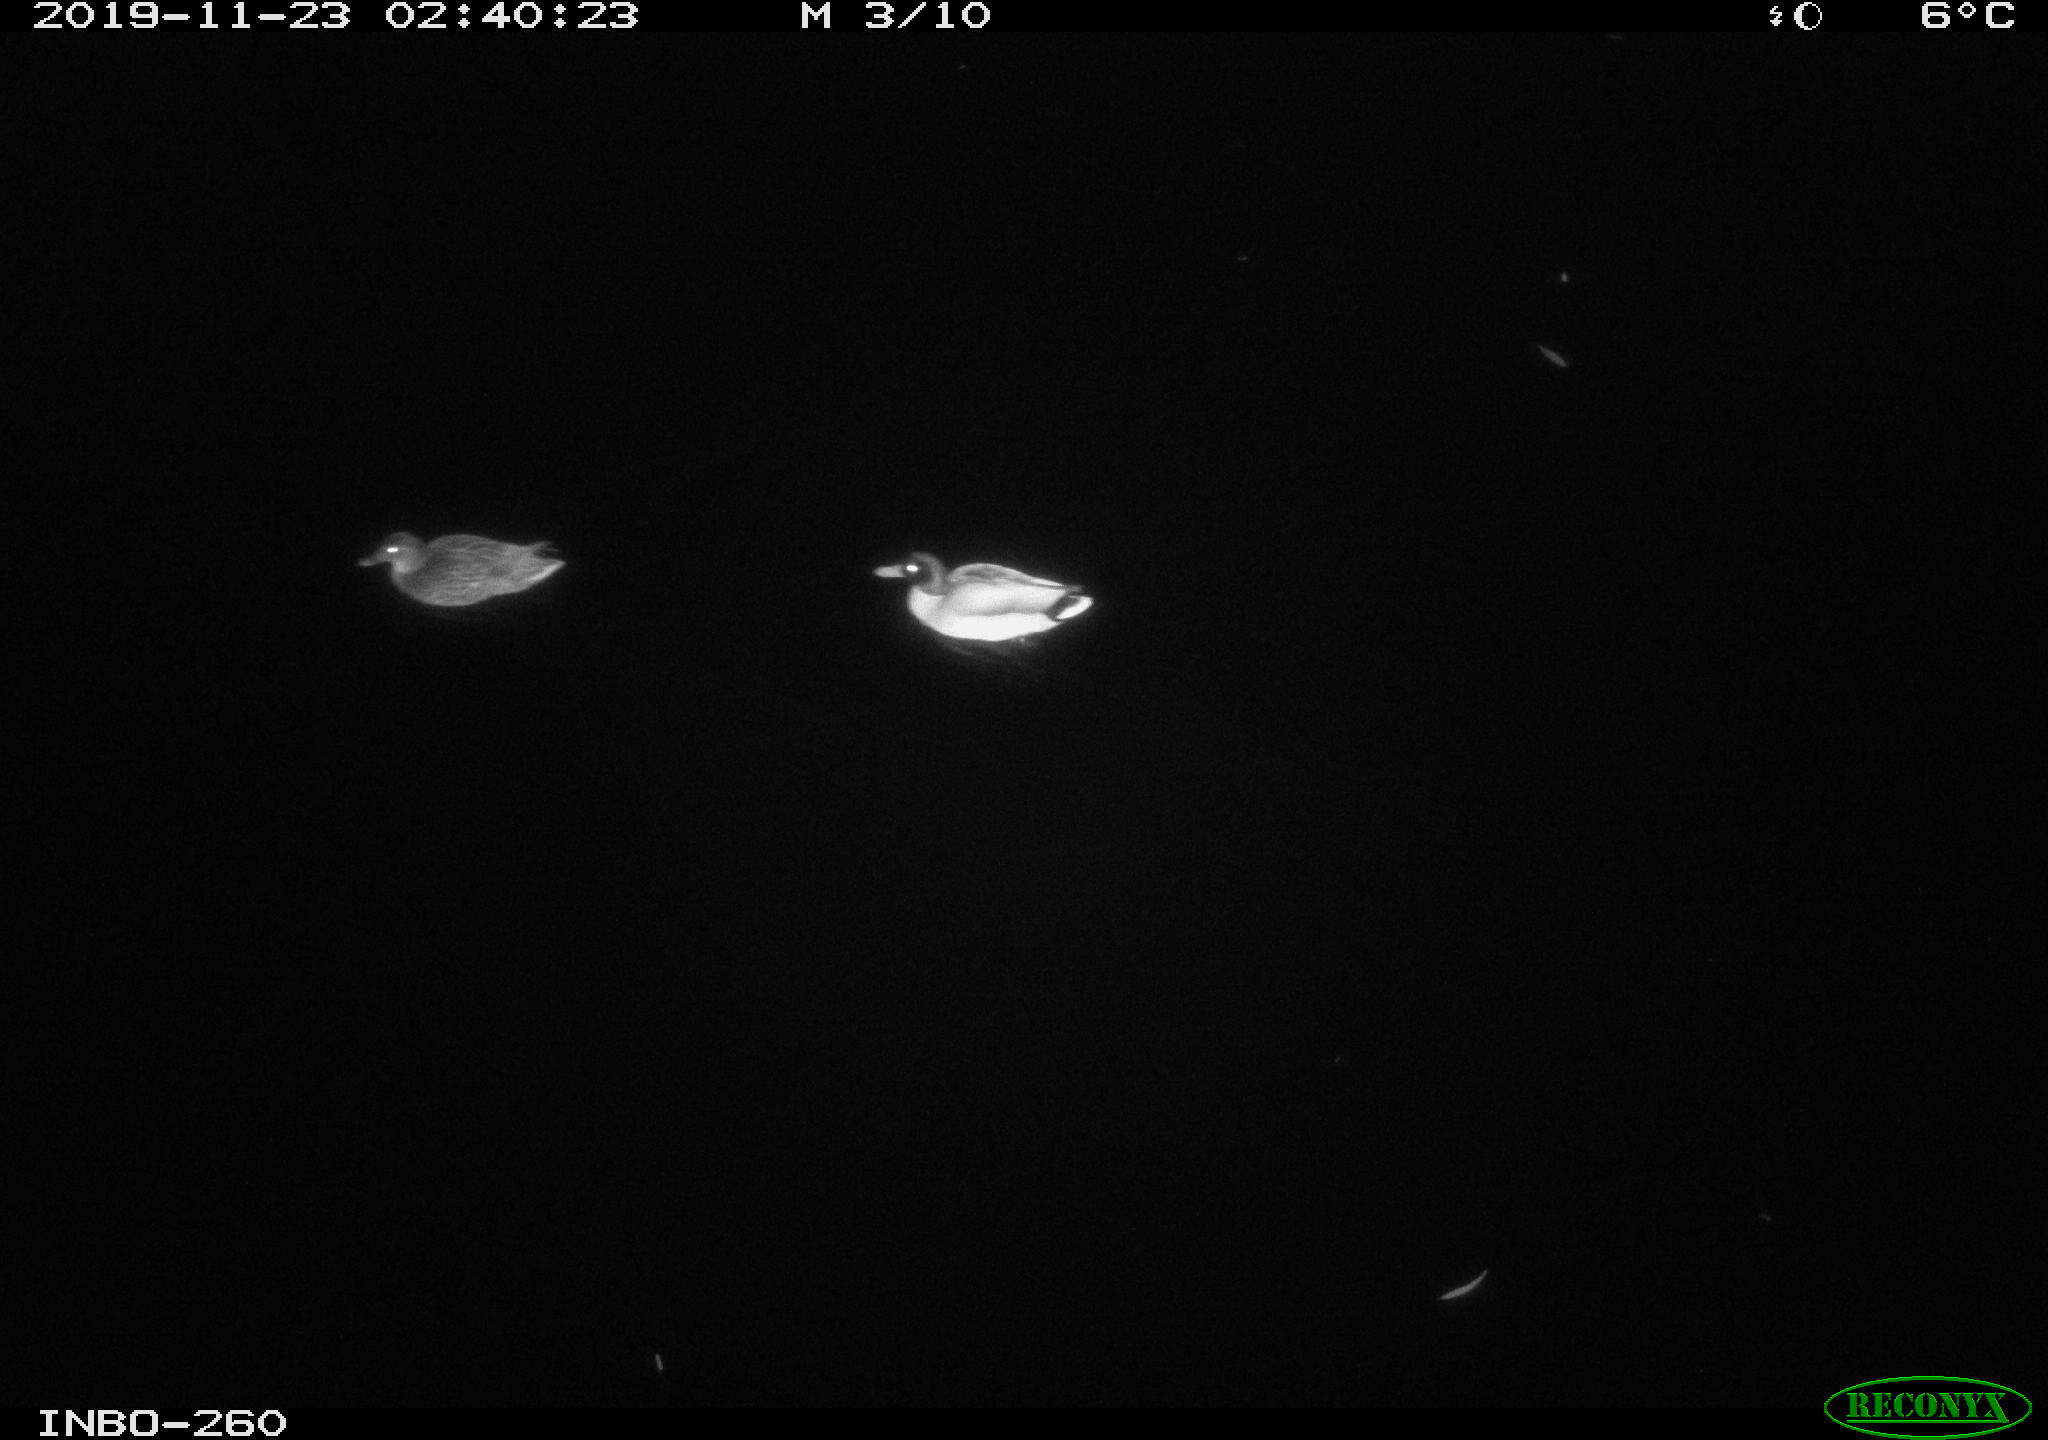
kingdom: Animalia
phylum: Chordata
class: Aves
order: Anseriformes
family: Anatidae
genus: Anas
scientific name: Anas platyrhynchos
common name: Mallard
